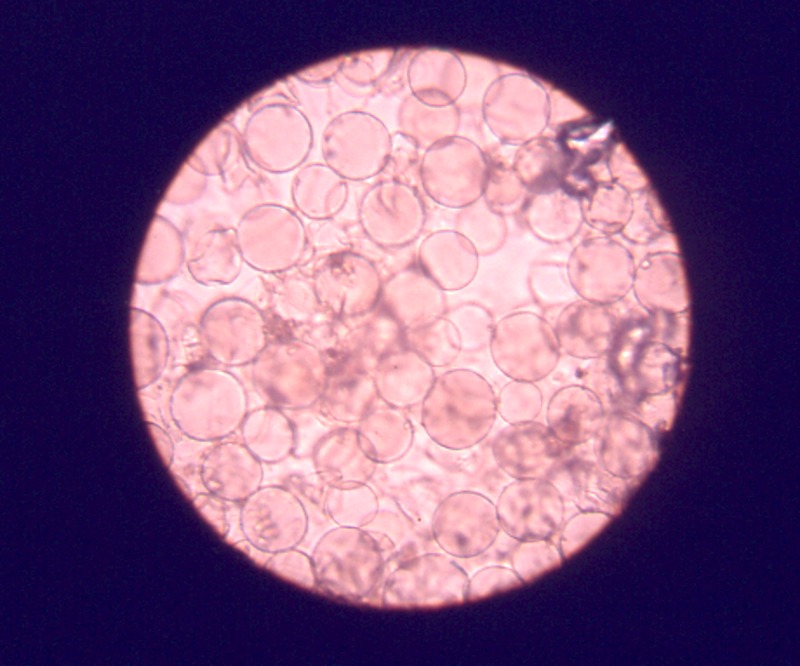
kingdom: Fungi
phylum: Basidiomycota
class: Agaricomycetes
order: Agaricales
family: Agaricaceae
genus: Melanophyllum
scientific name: Melanophyllum haematospermum
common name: Redspored dapperling
